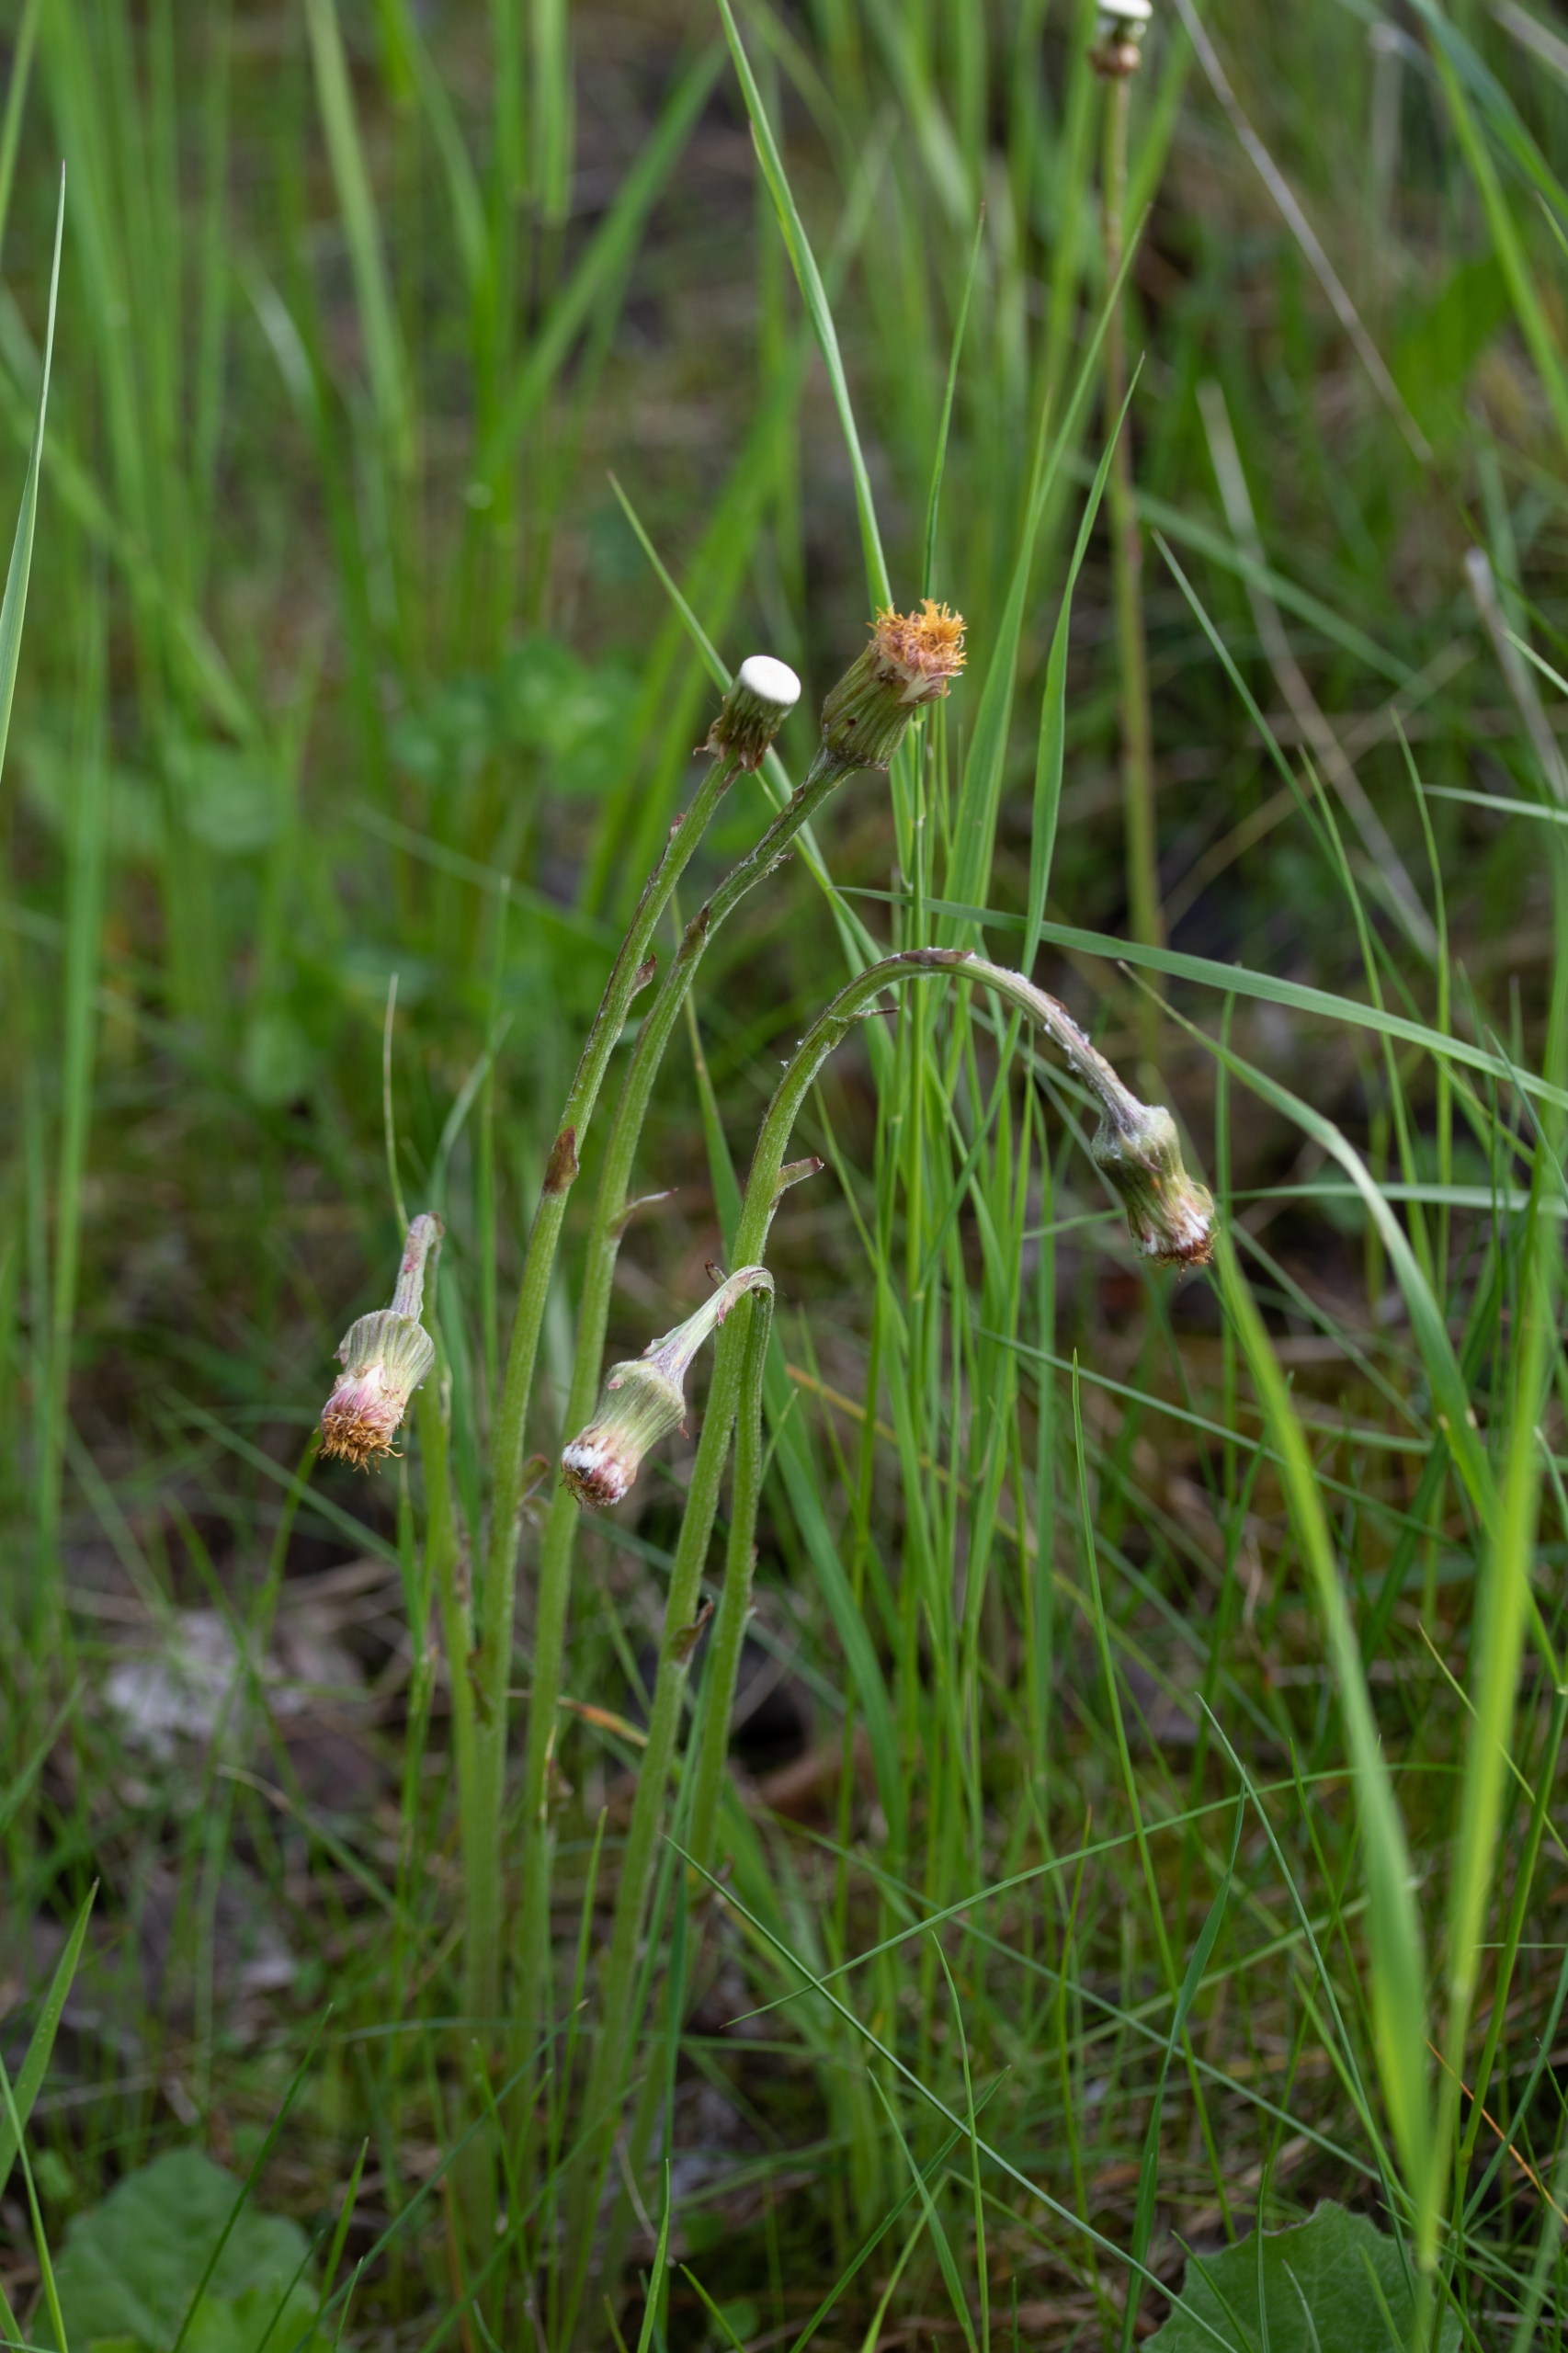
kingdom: Plantae
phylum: Tracheophyta
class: Magnoliopsida
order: Asterales
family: Asteraceae
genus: Tussilago
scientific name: Tussilago farfara
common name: Følfod
